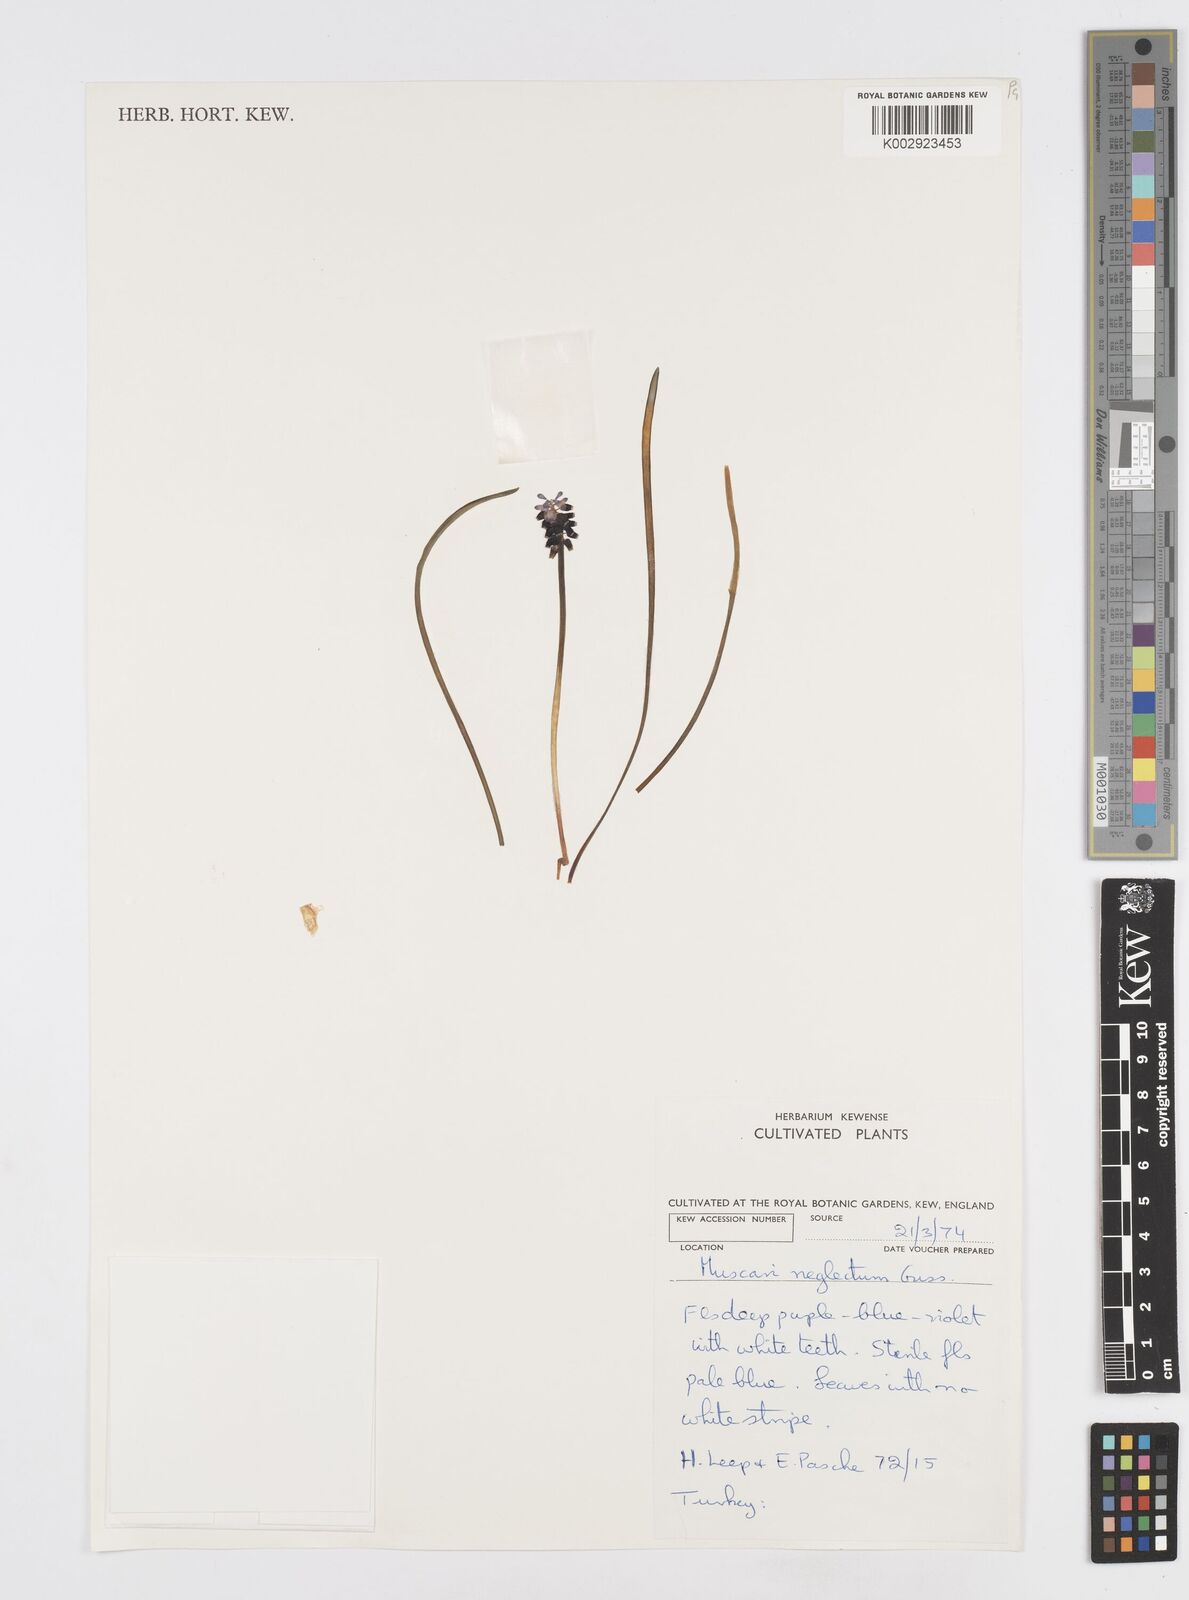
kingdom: Plantae
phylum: Tracheophyta
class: Liliopsida
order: Asparagales
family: Asparagaceae
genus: Muscari
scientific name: Muscari neglectum
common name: Grape-hyacinth
